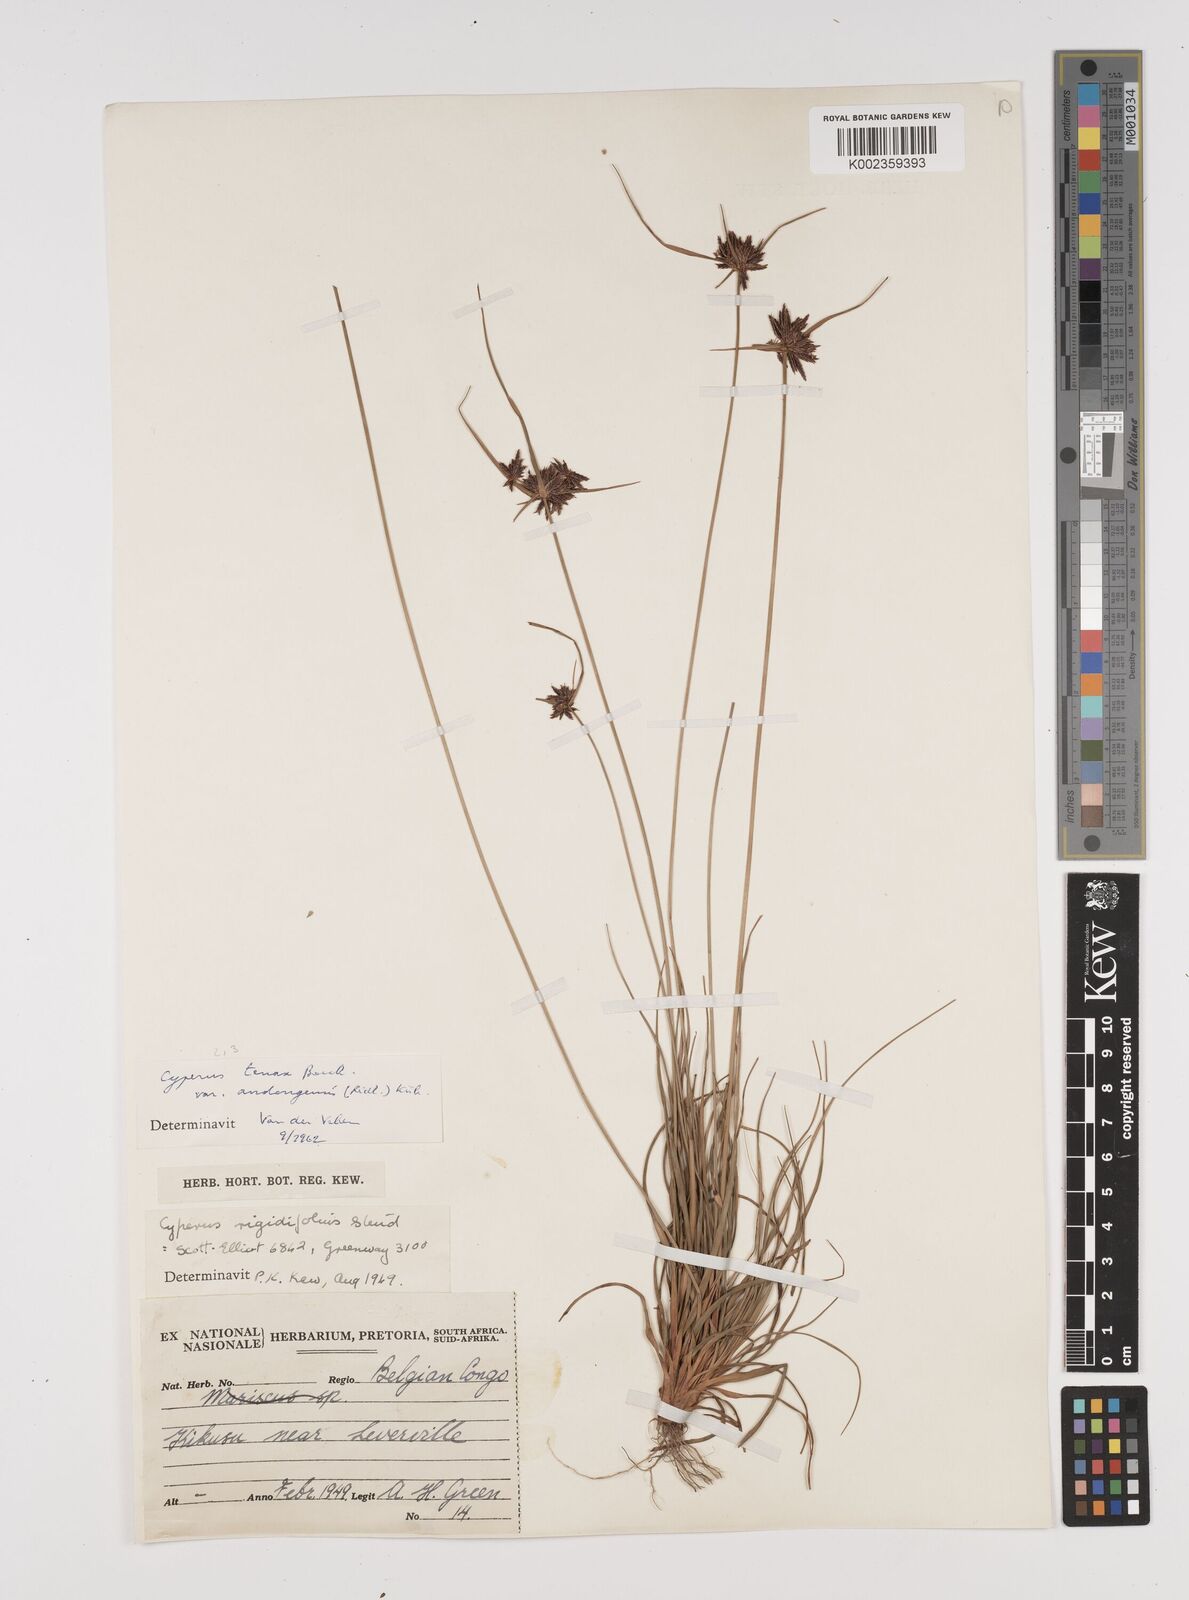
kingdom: Plantae
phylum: Tracheophyta
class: Liliopsida
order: Poales
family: Cyperaceae
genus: Cyperus
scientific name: Cyperus tenax
